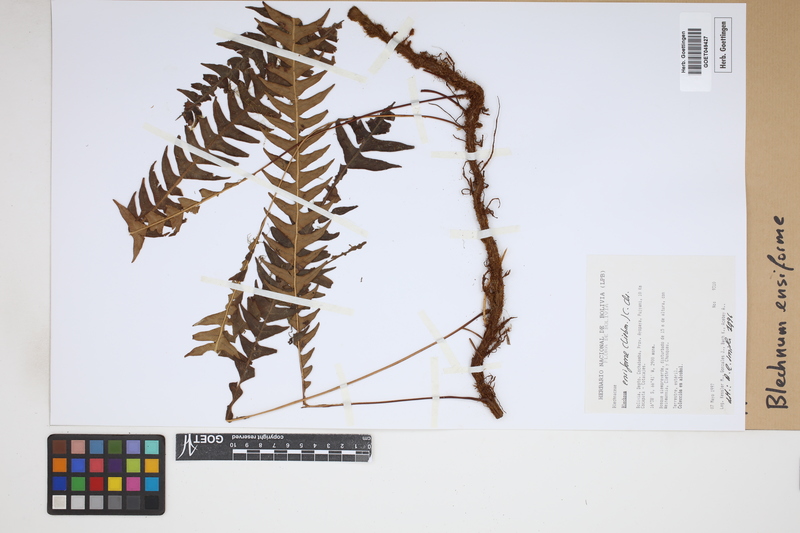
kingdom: Plantae
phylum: Tracheophyta
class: Polypodiopsida
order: Polypodiales
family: Blechnaceae
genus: Lomaridium
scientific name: Lomaridium ensiforme
